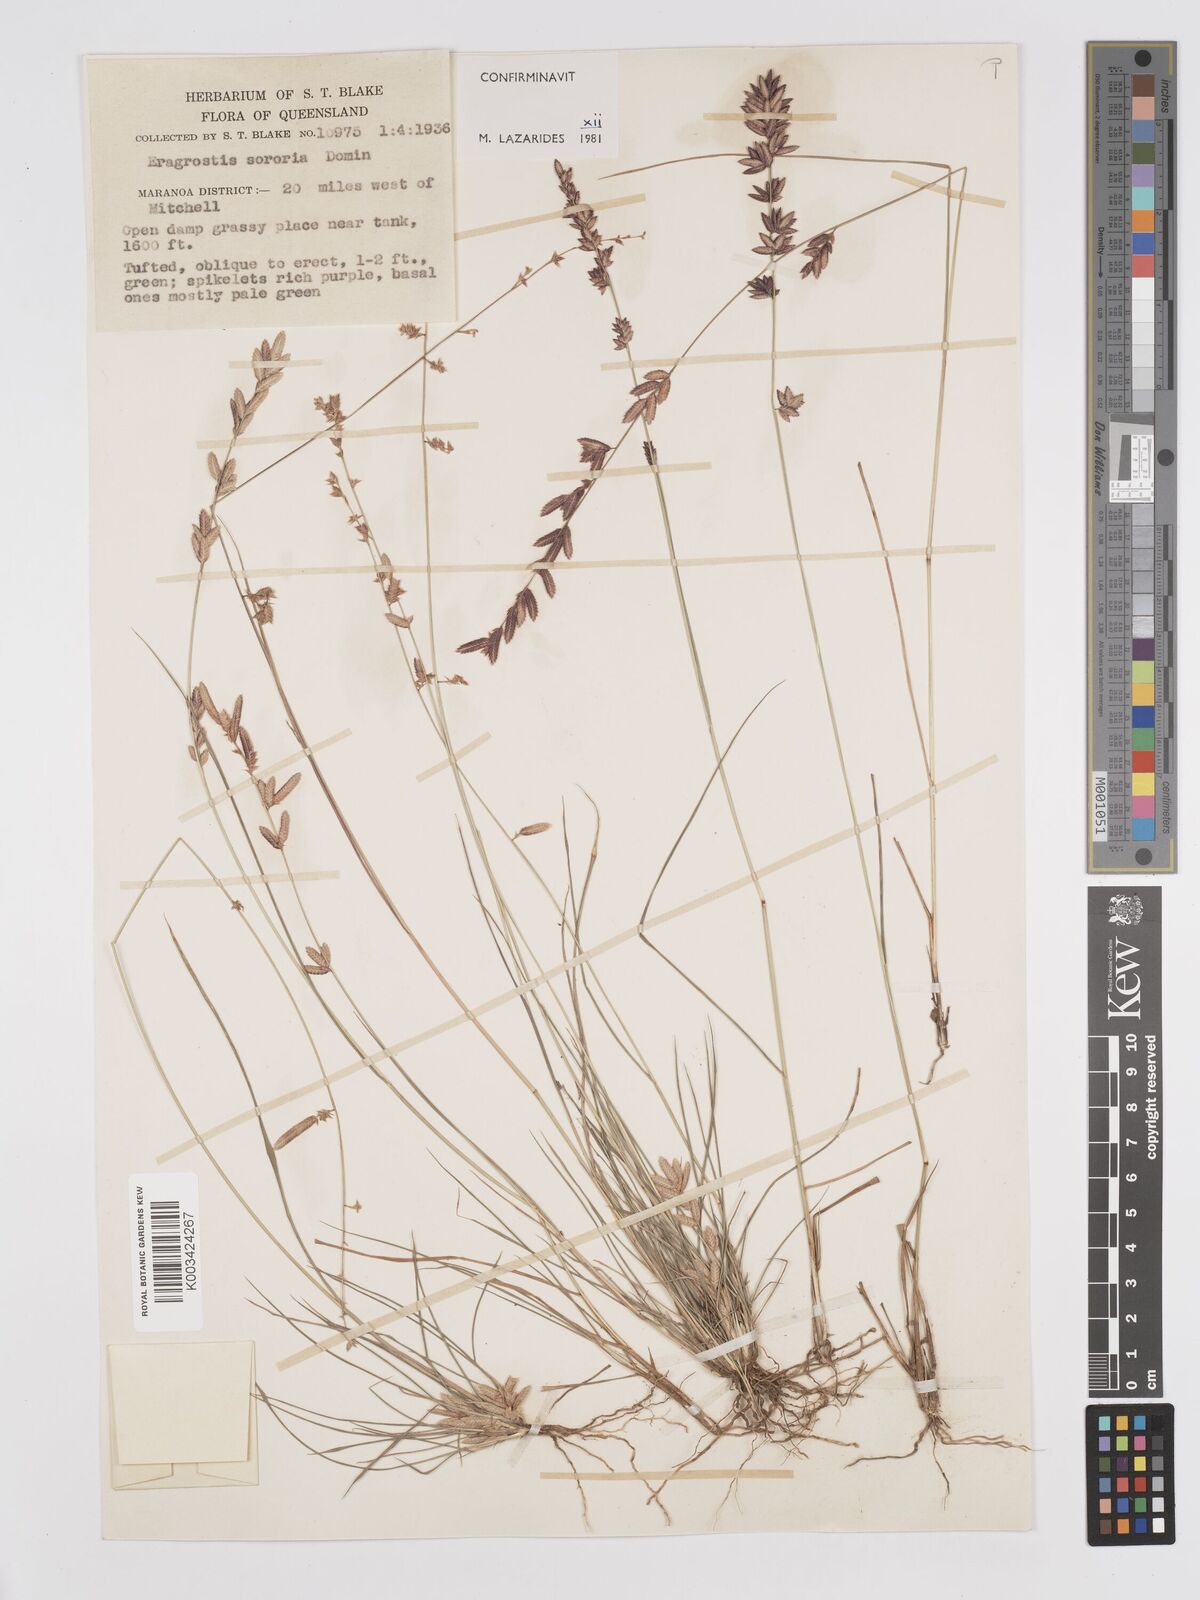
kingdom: Plantae
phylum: Tracheophyta
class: Liliopsida
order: Poales
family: Poaceae
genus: Eragrostis
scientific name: Eragrostis sororia
